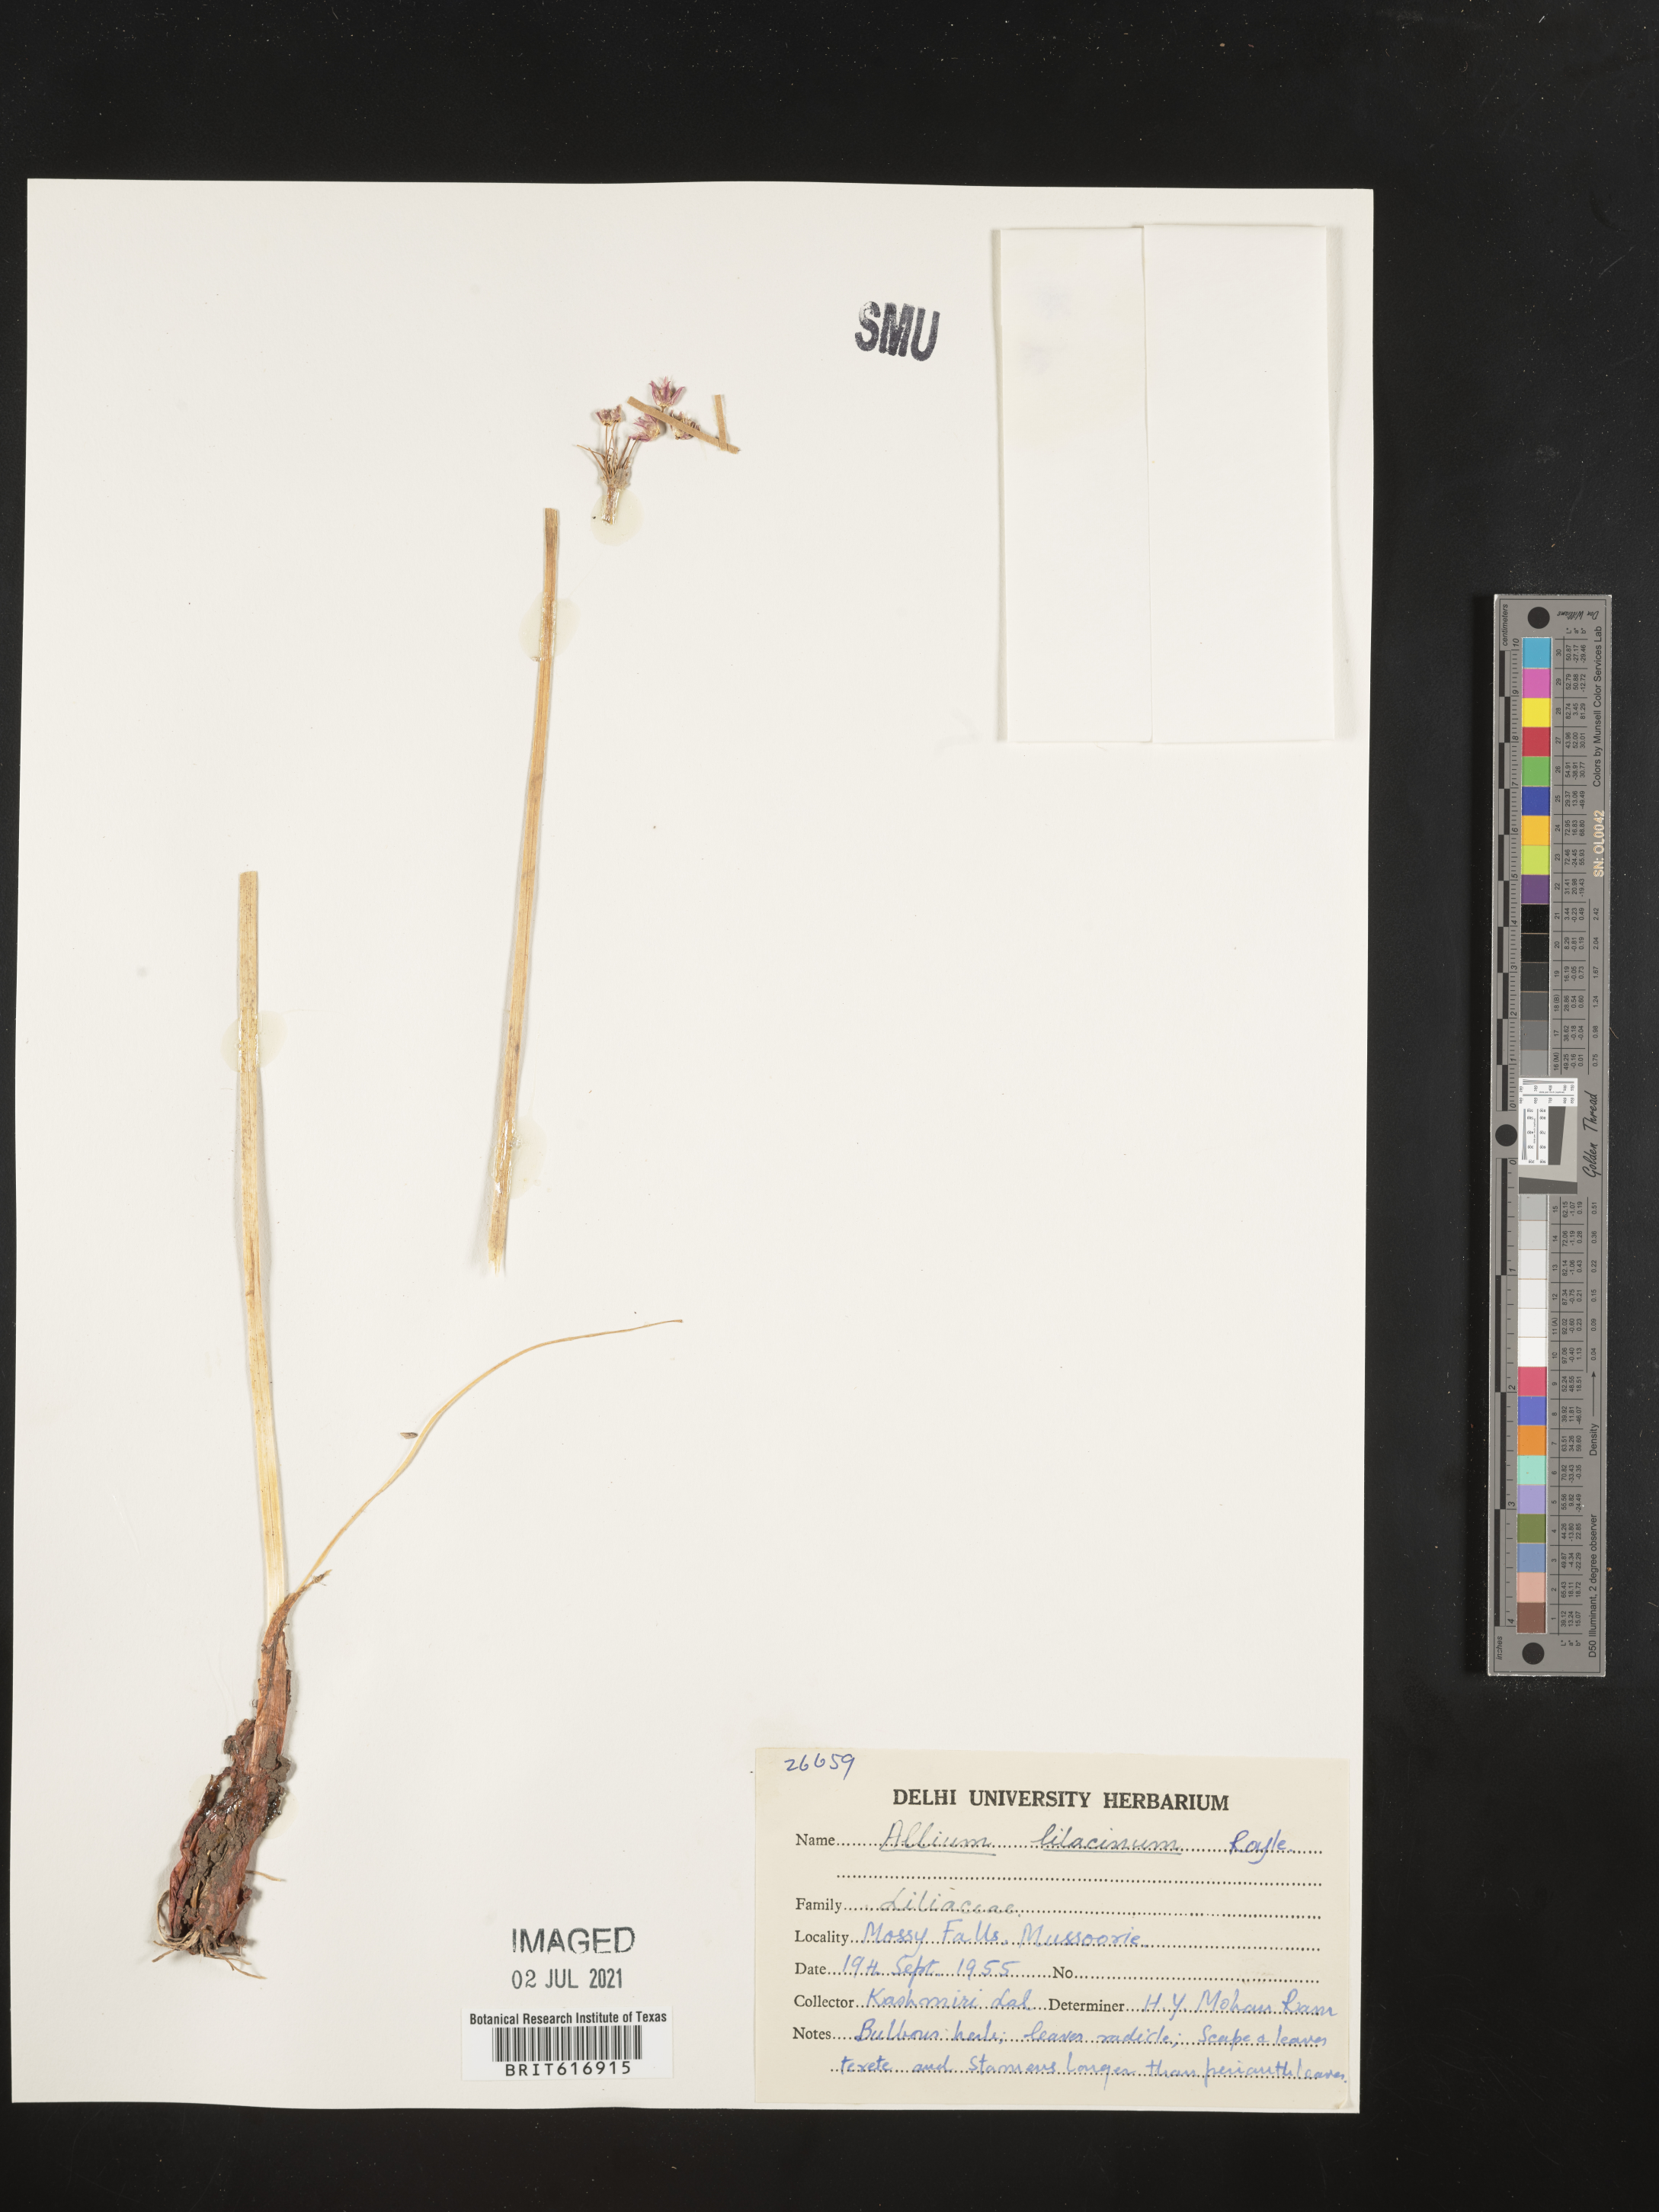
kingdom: Plantae
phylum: Tracheophyta
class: Liliopsida
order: Asparagales
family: Amaryllidaceae
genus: Allium
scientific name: Allium lilacinum
